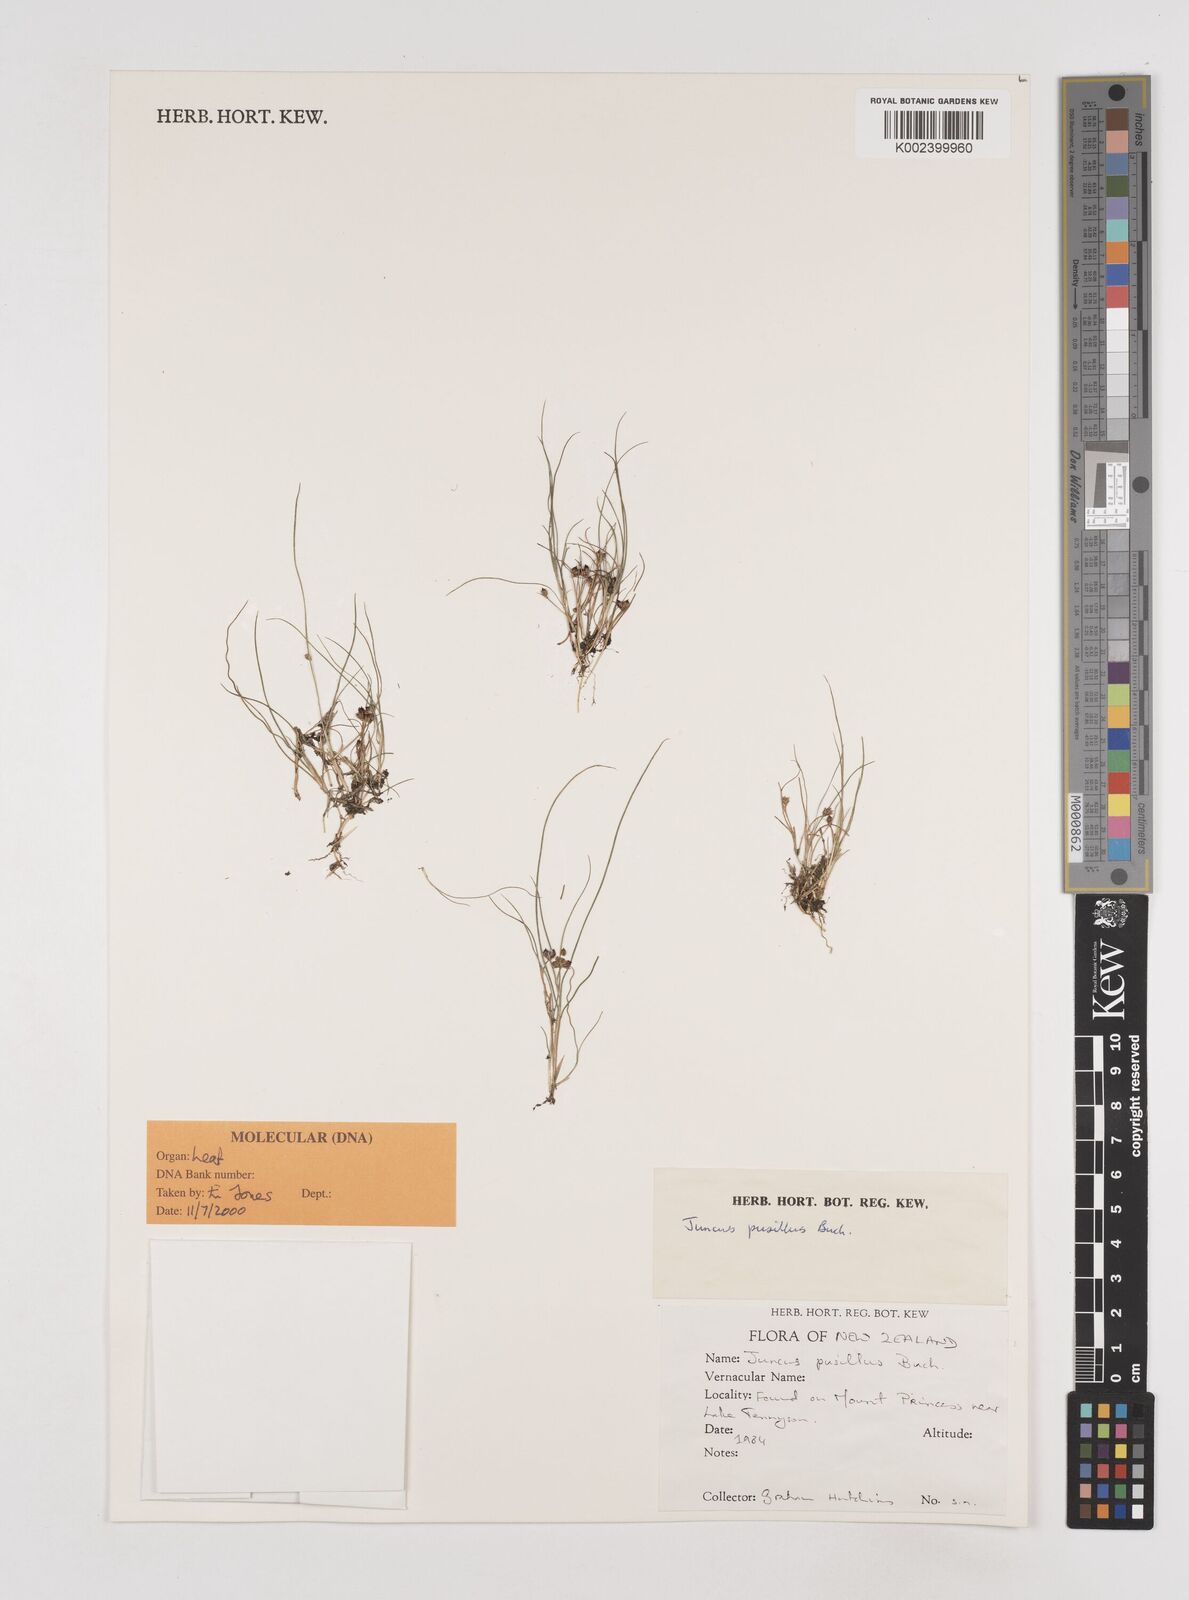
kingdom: Plantae
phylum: Tracheophyta
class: Liliopsida
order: Poales
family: Juncaceae
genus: Juncus
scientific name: Juncus pusillus
